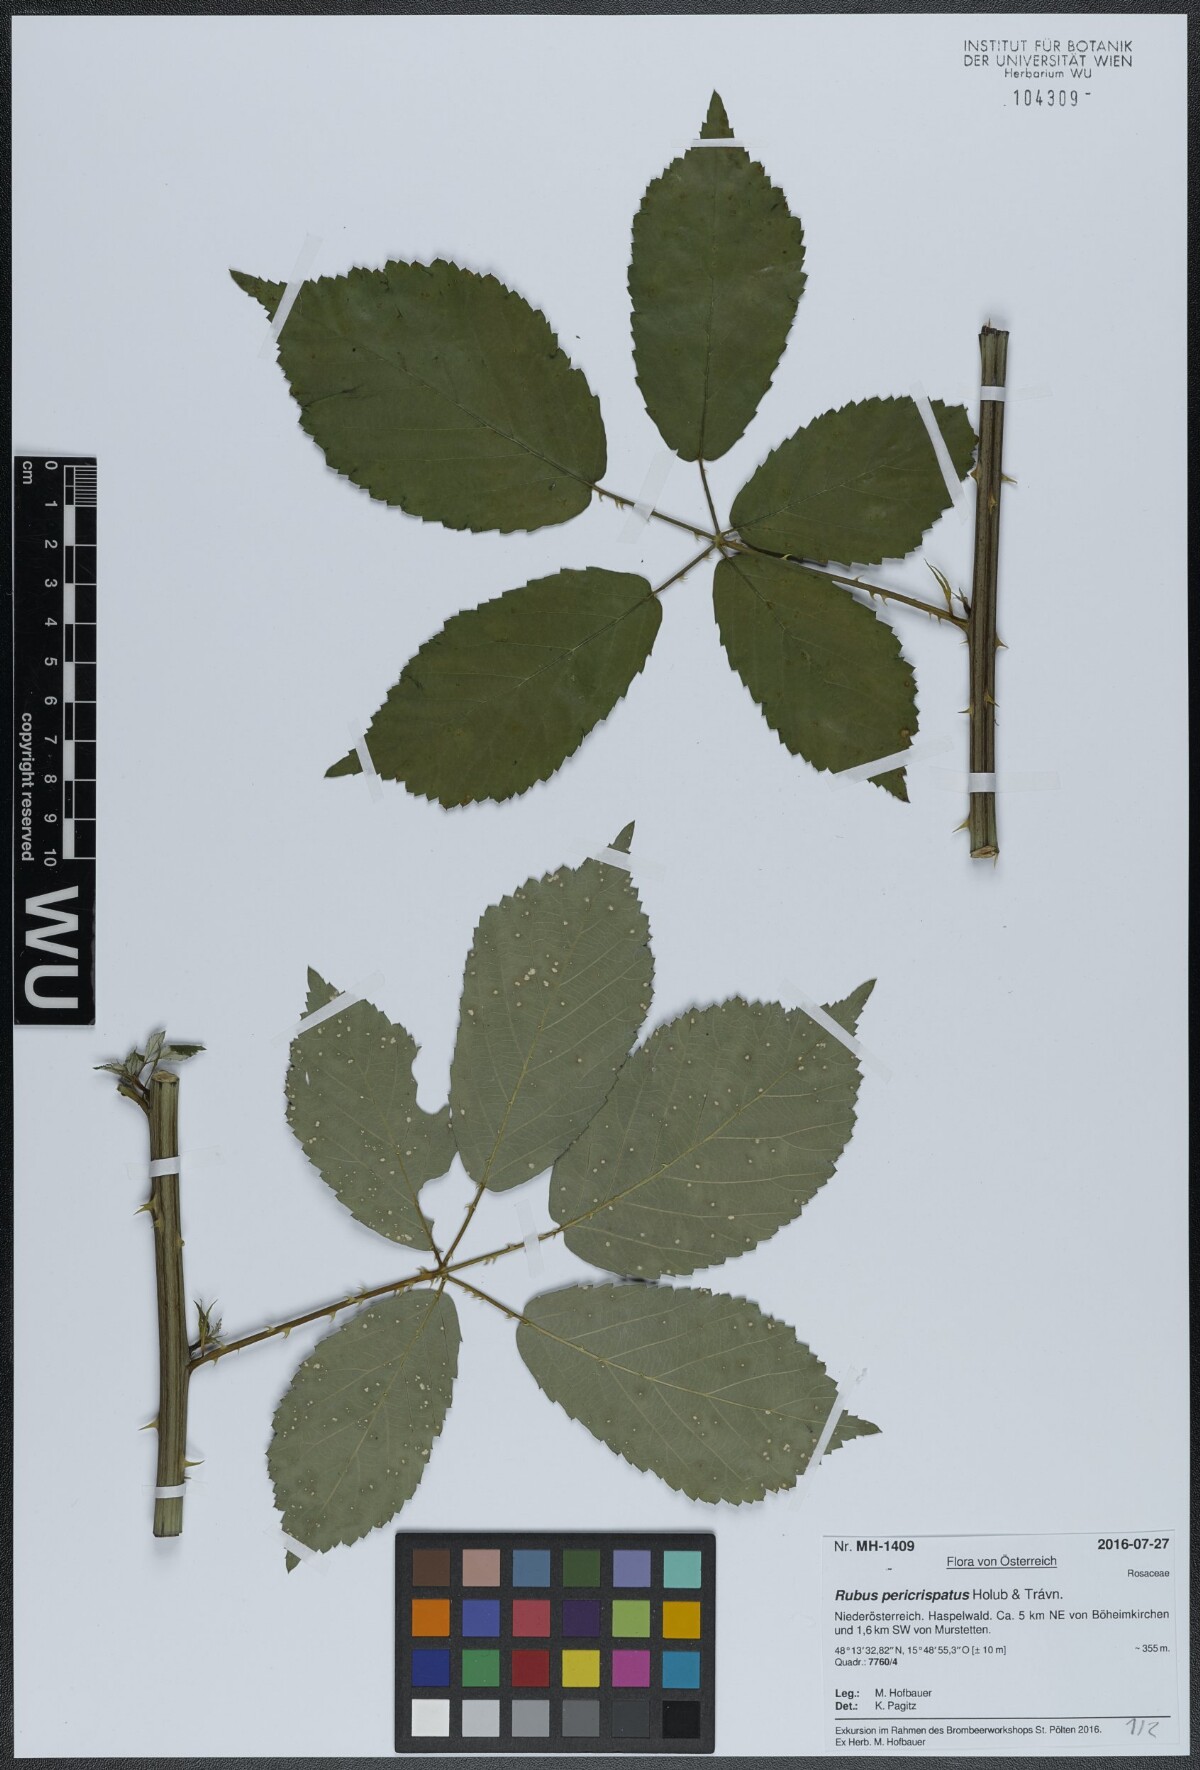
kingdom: Plantae
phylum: Tracheophyta
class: Magnoliopsida
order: Rosales
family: Rosaceae
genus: Rubus
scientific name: Rubus pericrispatus
